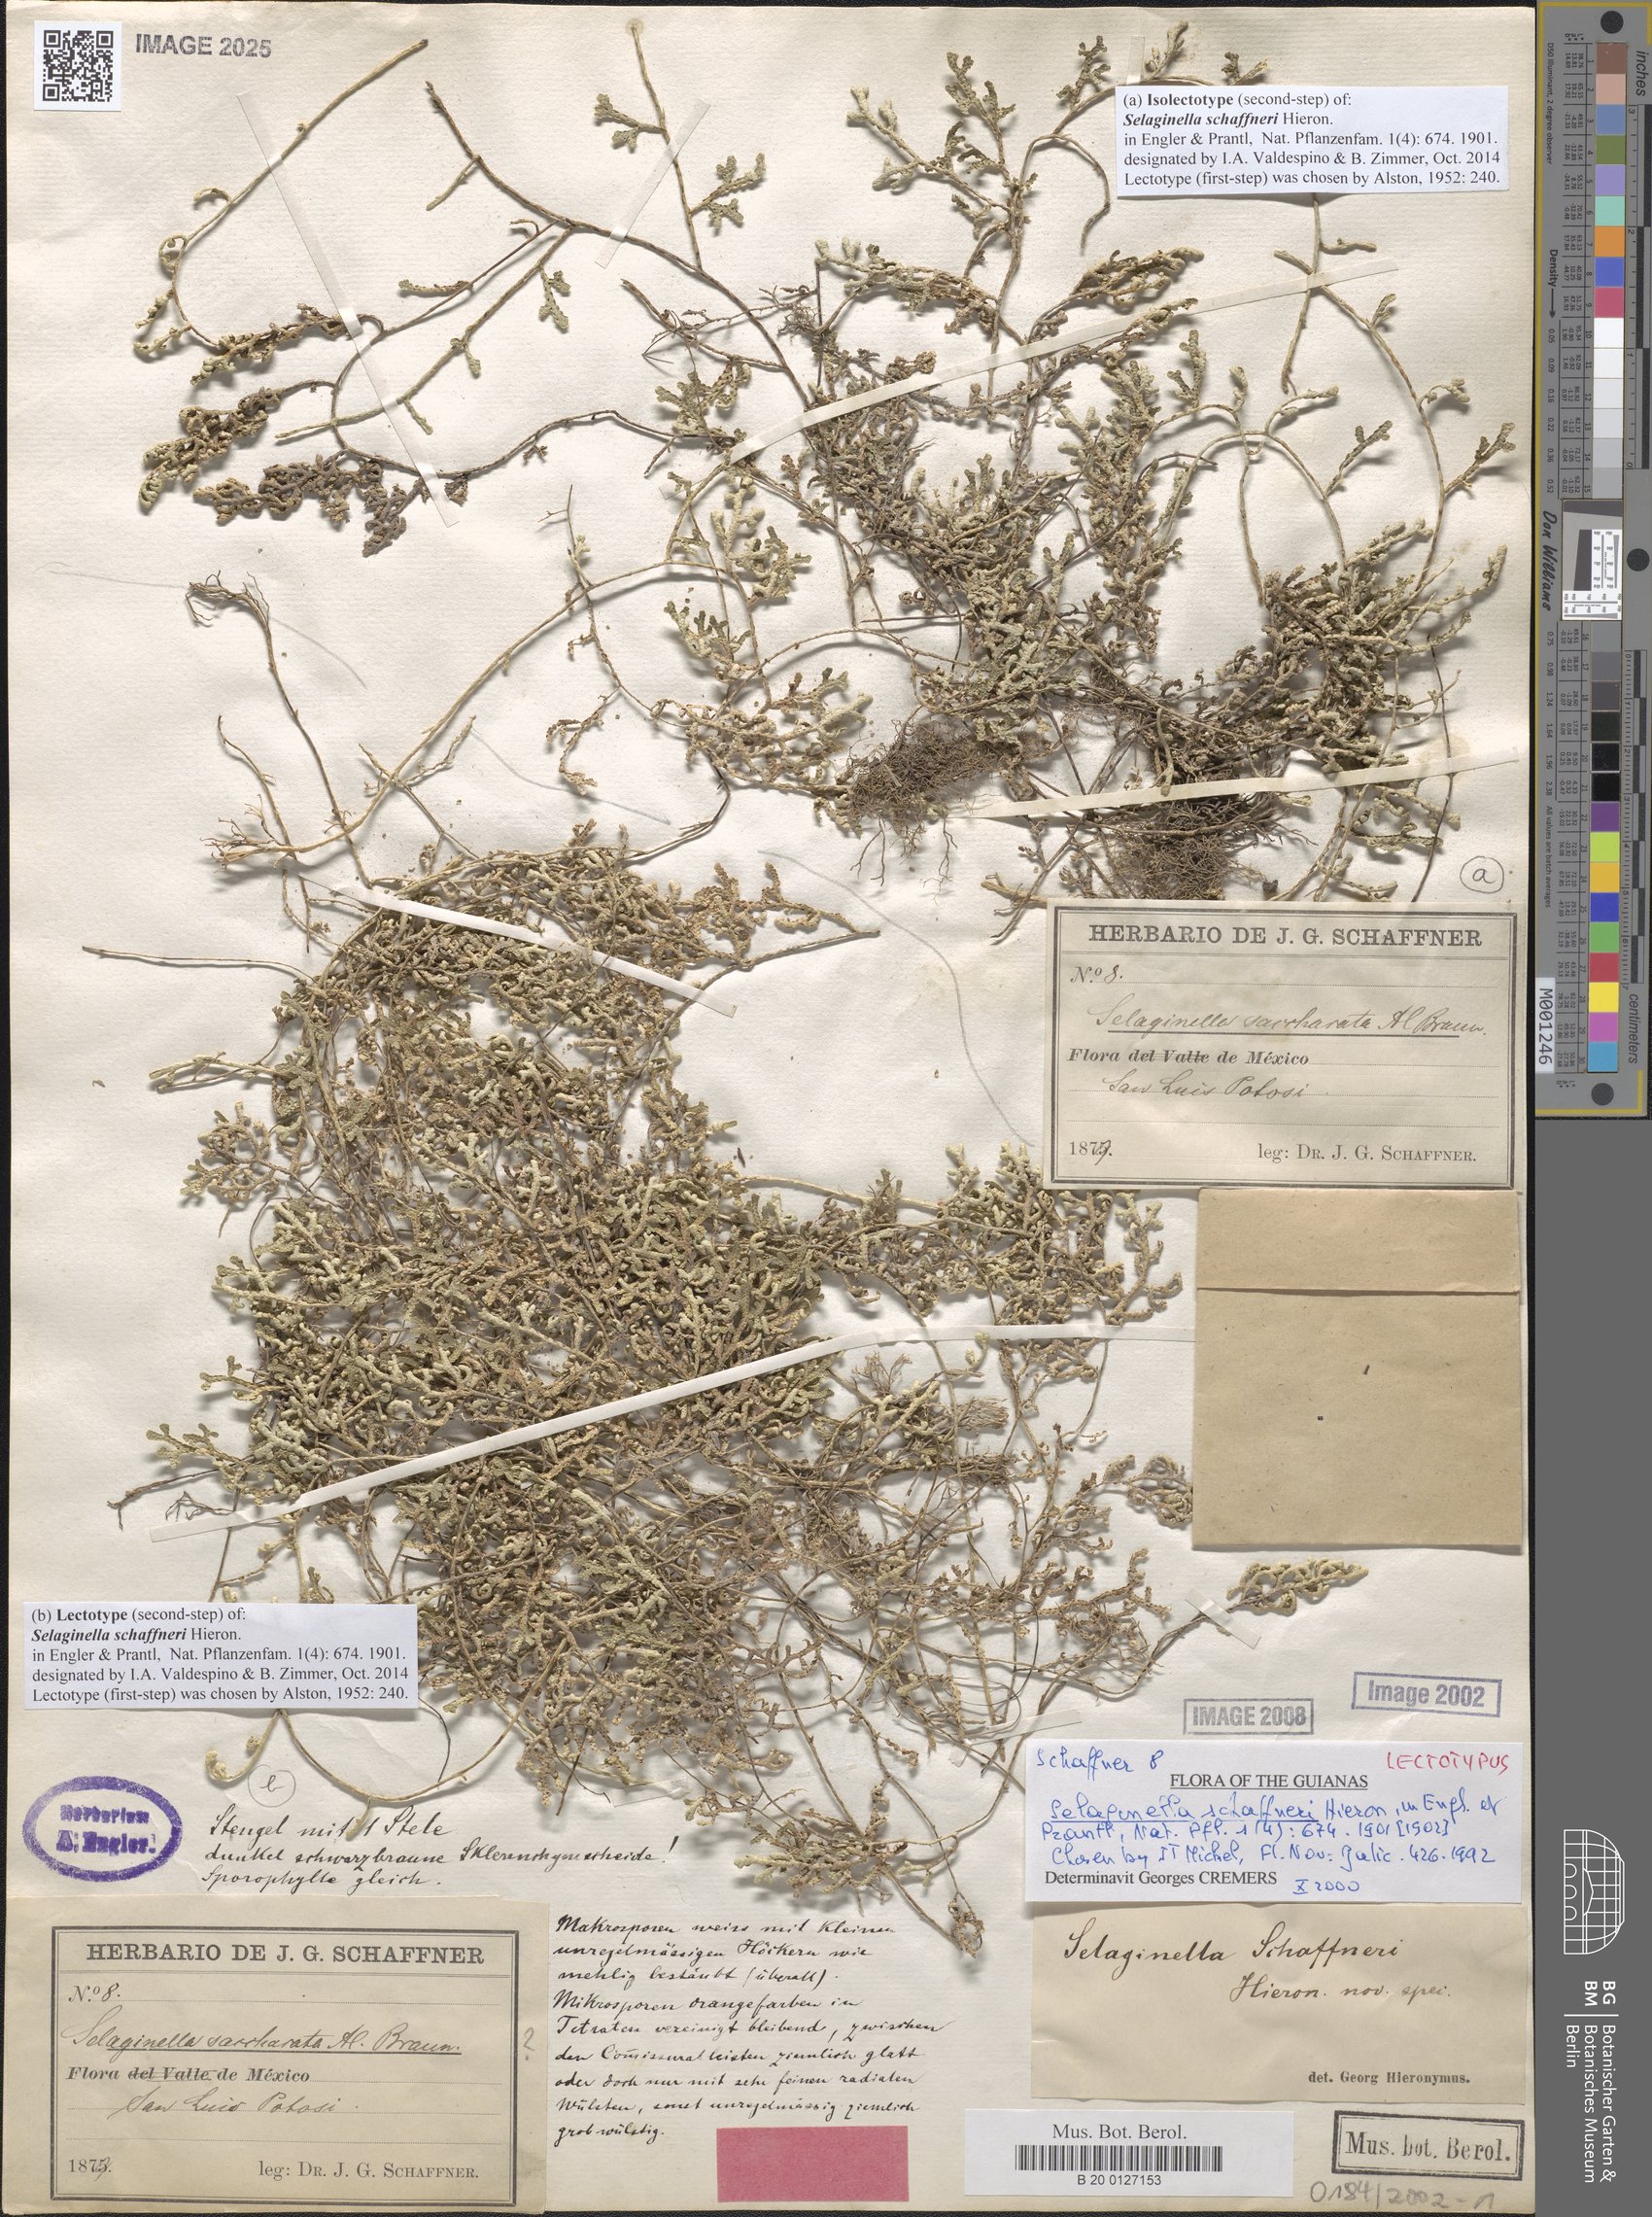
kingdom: Plantae
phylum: Tracheophyta
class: Lycopodiopsida
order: Selaginellales
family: Selaginellaceae
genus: Selaginella
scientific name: Selaginella schaffneri
